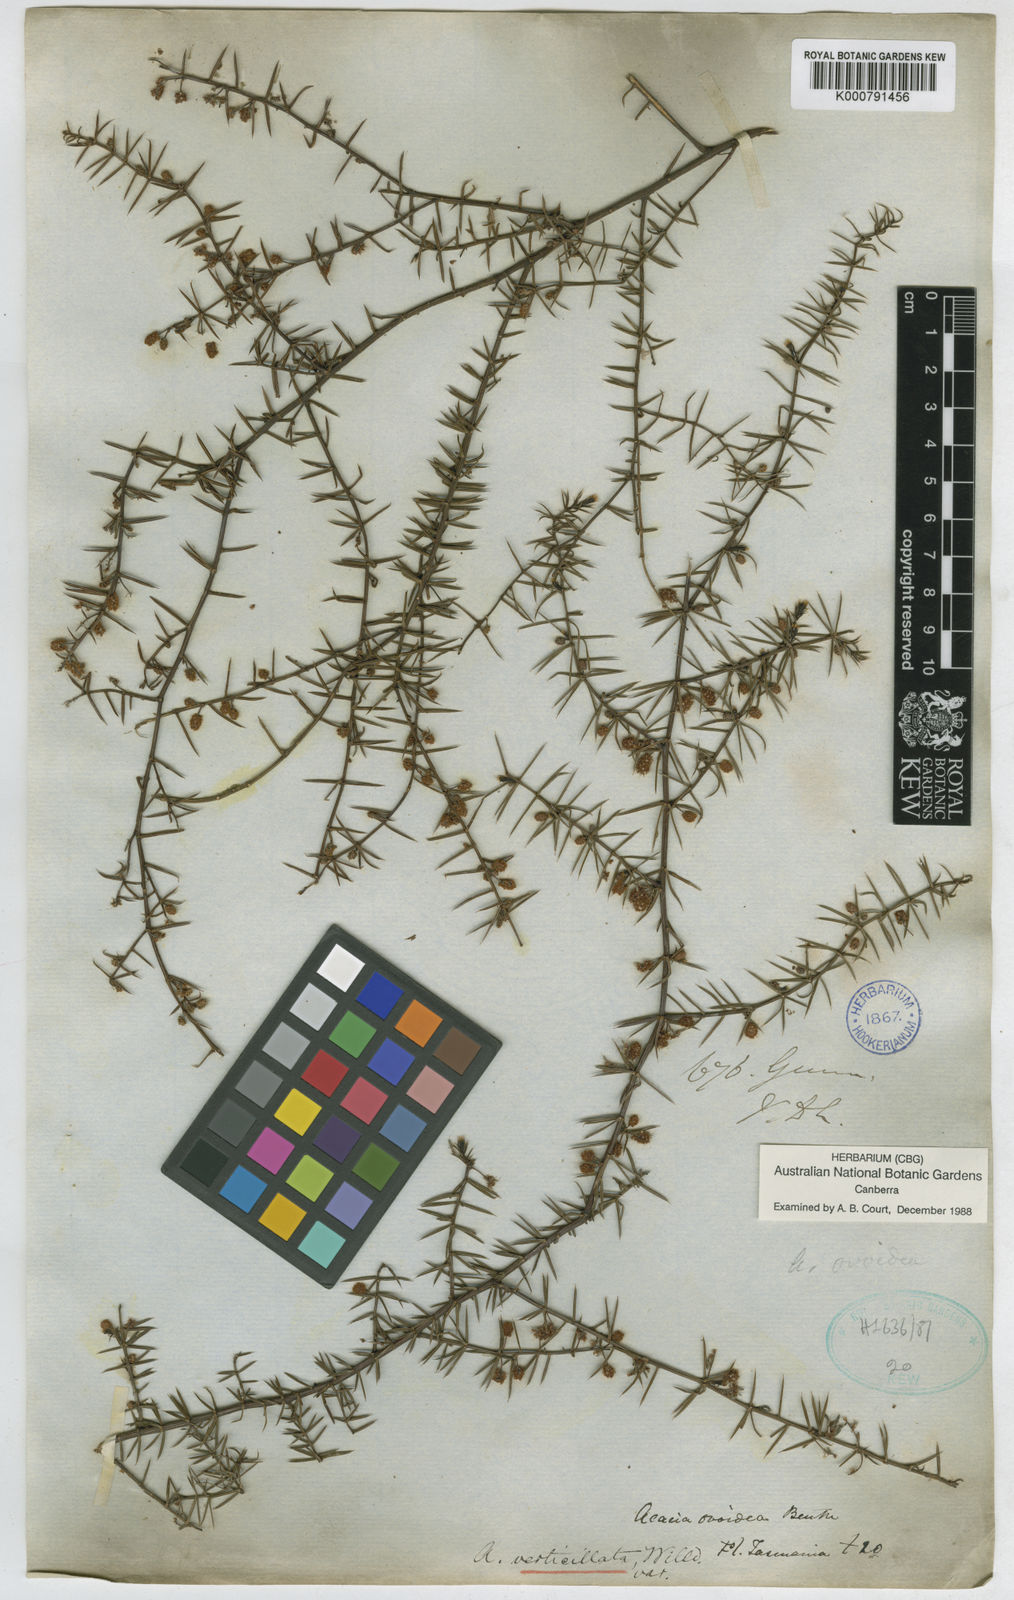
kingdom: Plantae
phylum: Tracheophyta
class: Magnoliopsida
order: Fabales
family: Fabaceae
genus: Acacia
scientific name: Acacia verticillata
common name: Prickly moses
